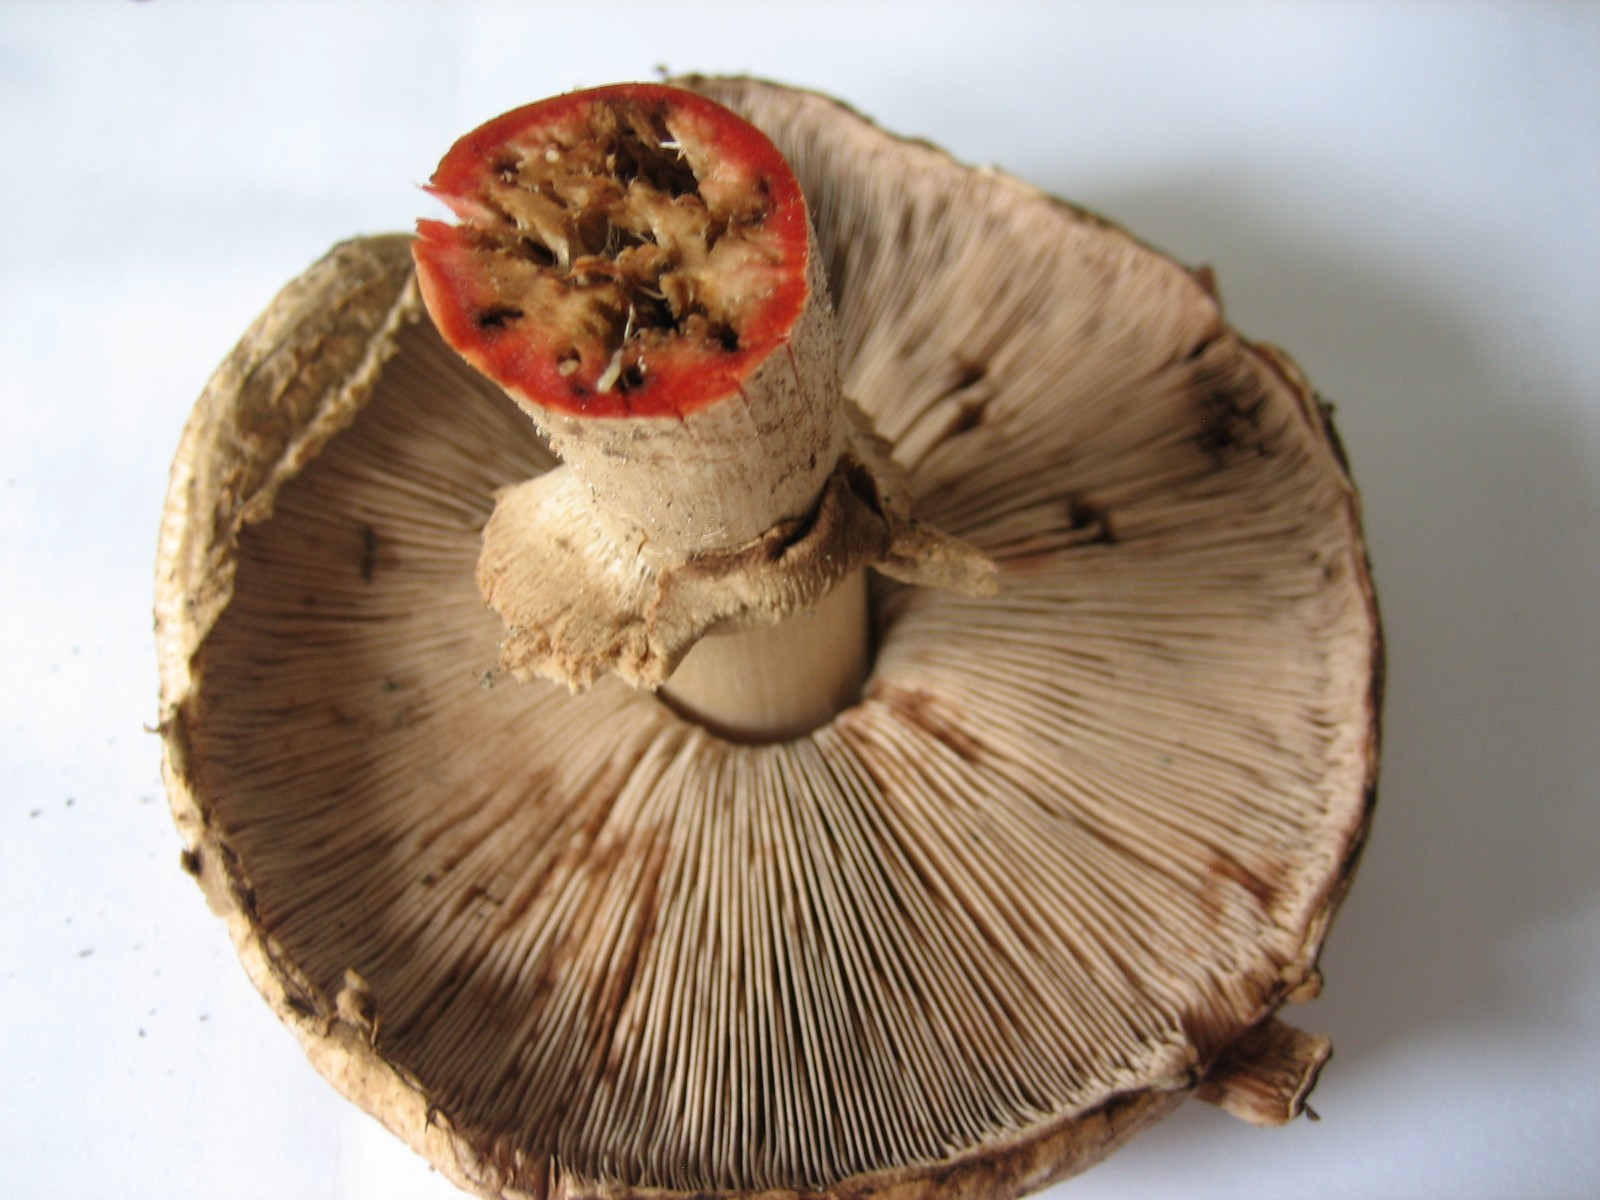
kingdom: Fungi
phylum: Basidiomycota
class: Agaricomycetes
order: Agaricales
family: Agaricaceae
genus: Agaricus
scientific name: Agaricus
